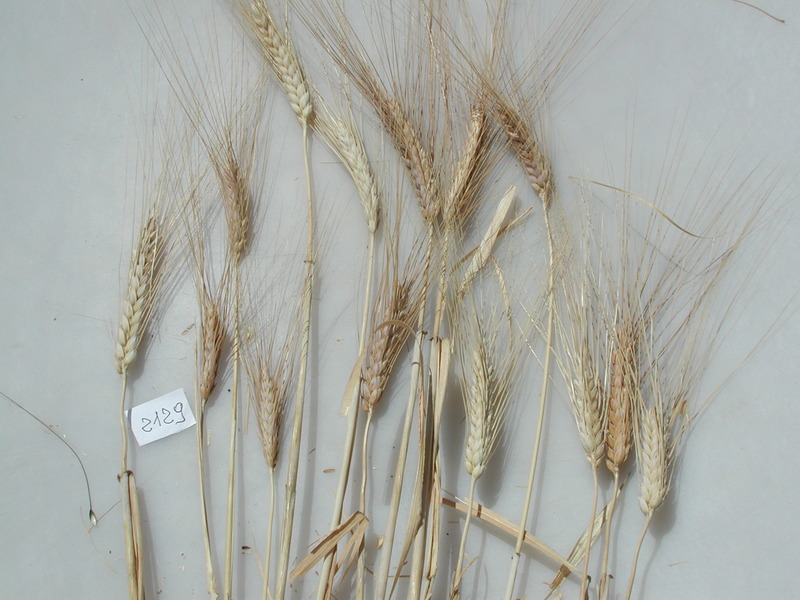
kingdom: Plantae
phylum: Tracheophyta
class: Liliopsida
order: Poales
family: Poaceae
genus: Triticum
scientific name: Triticum turgidum
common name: Wheat
